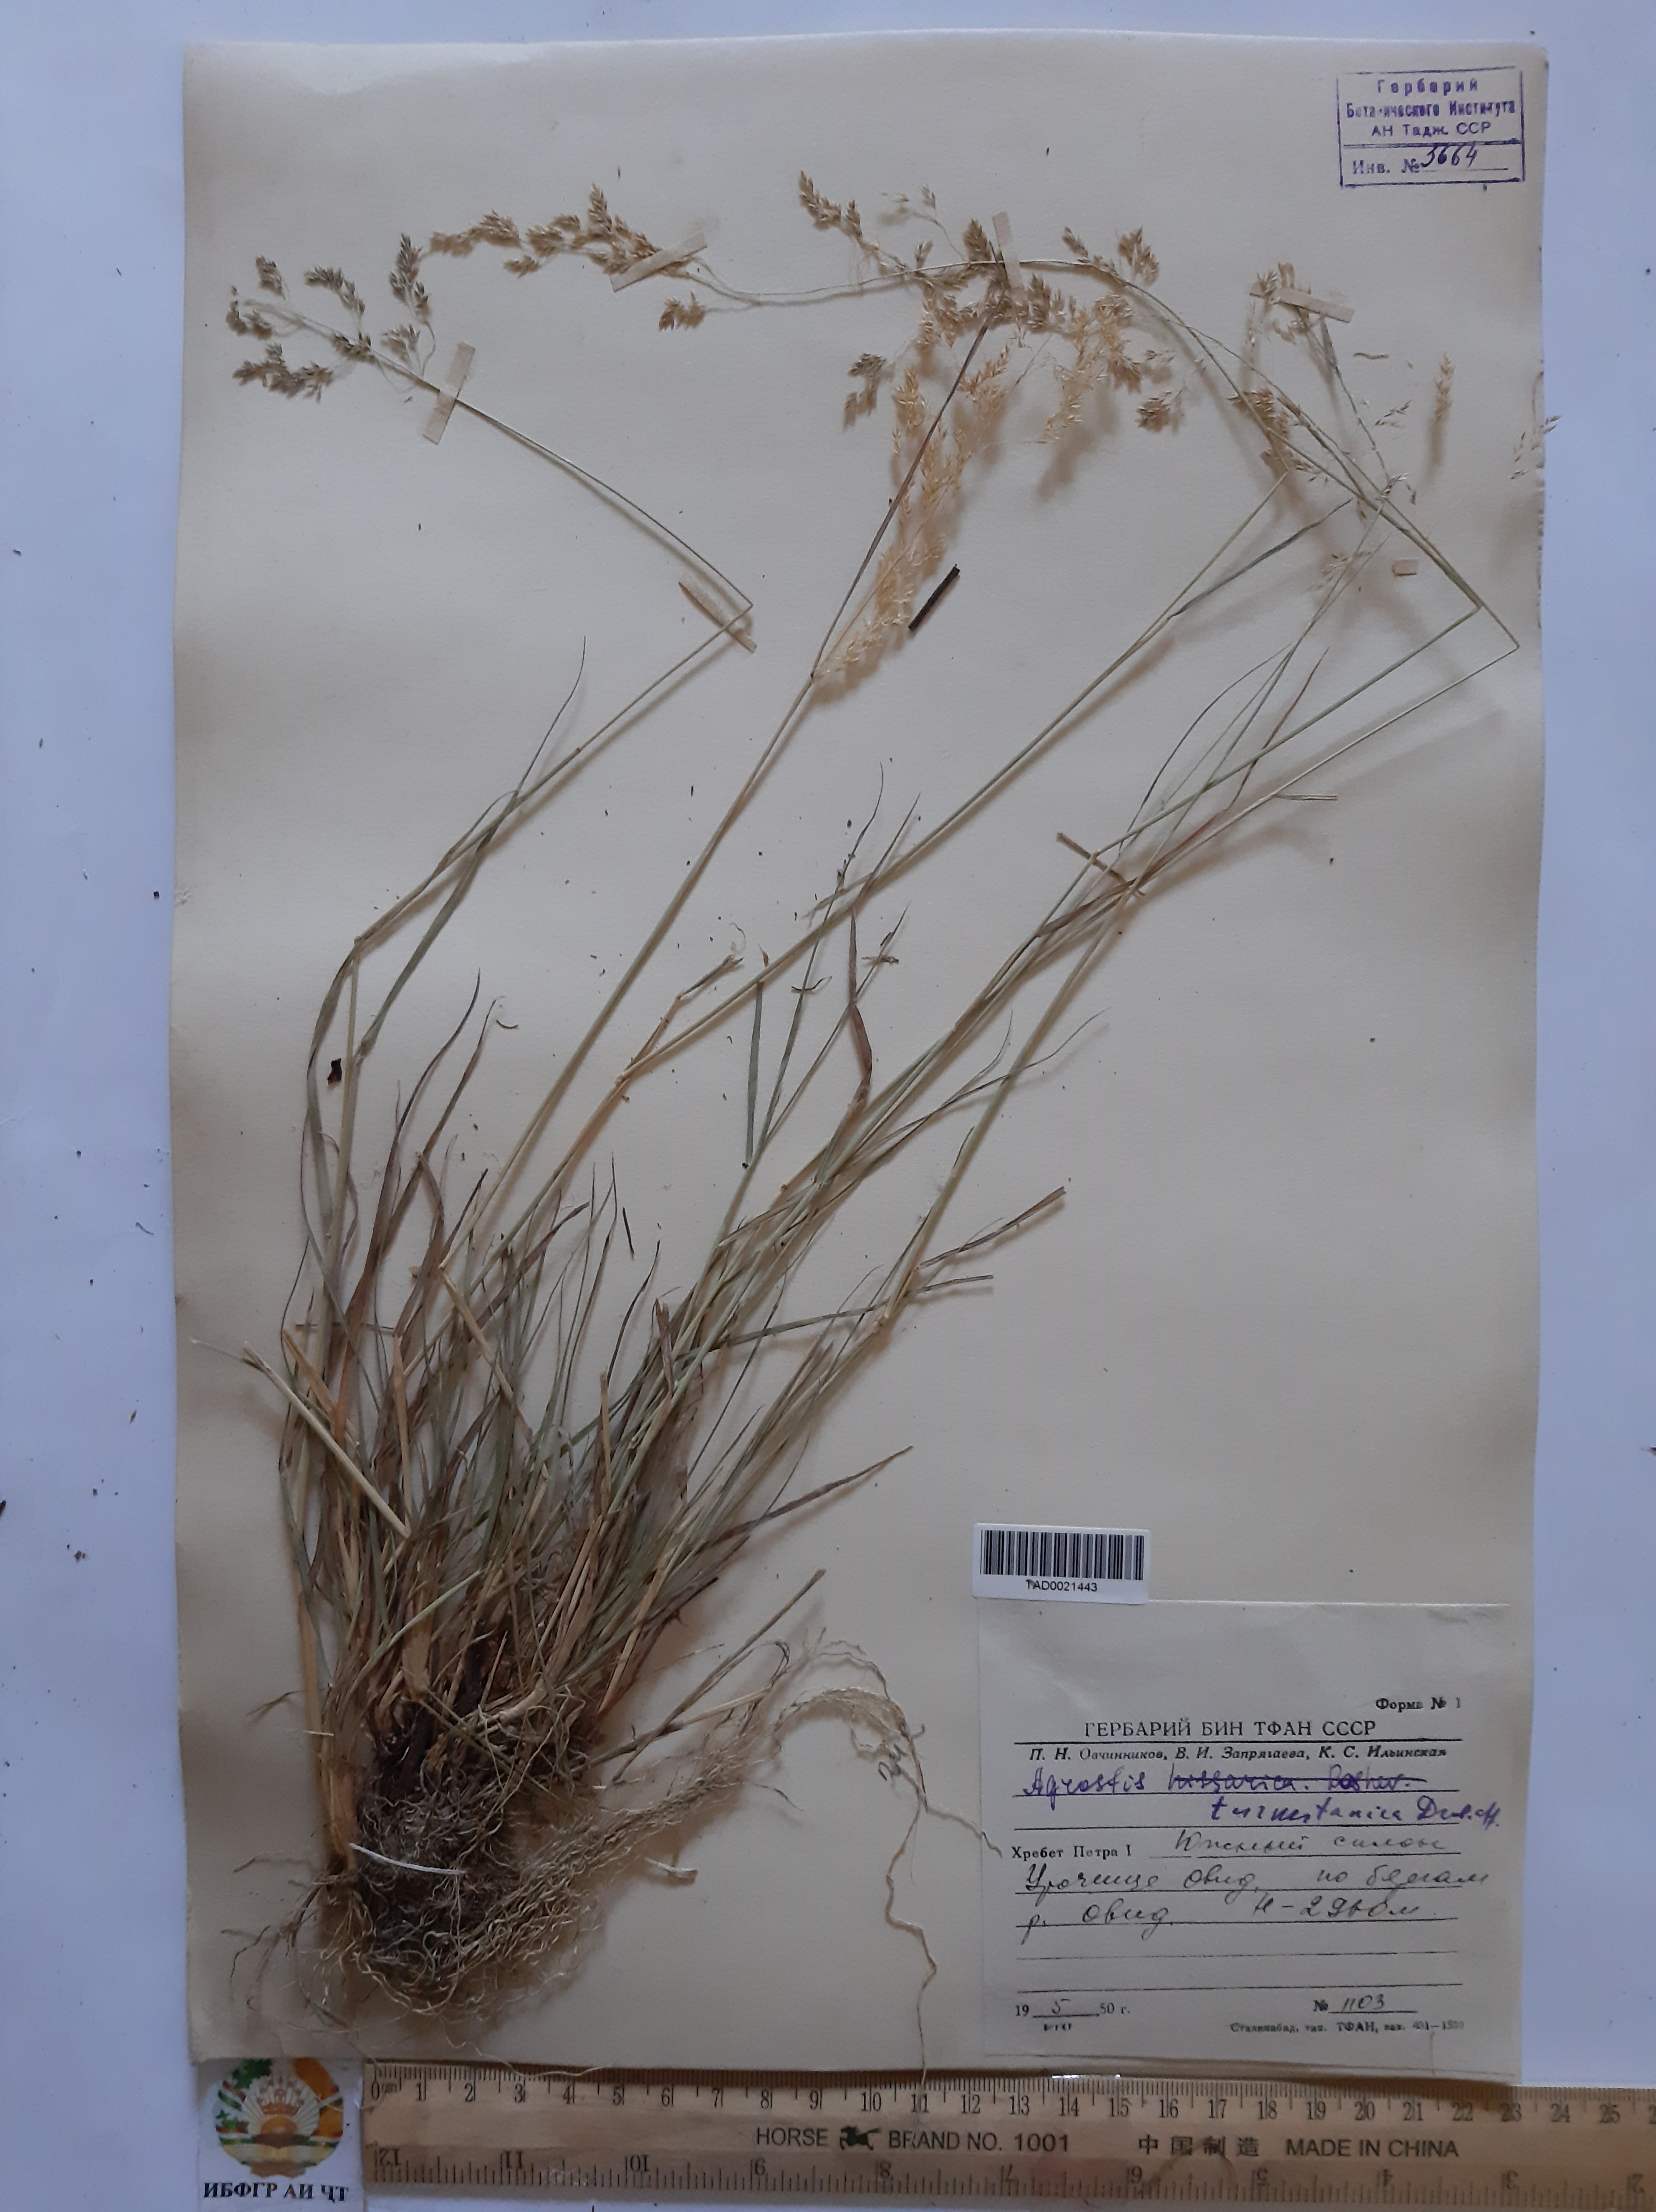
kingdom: Plantae
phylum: Tracheophyta
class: Liliopsida
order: Poales
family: Poaceae
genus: Agrostis
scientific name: Agrostis vinealis
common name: Brown bent
